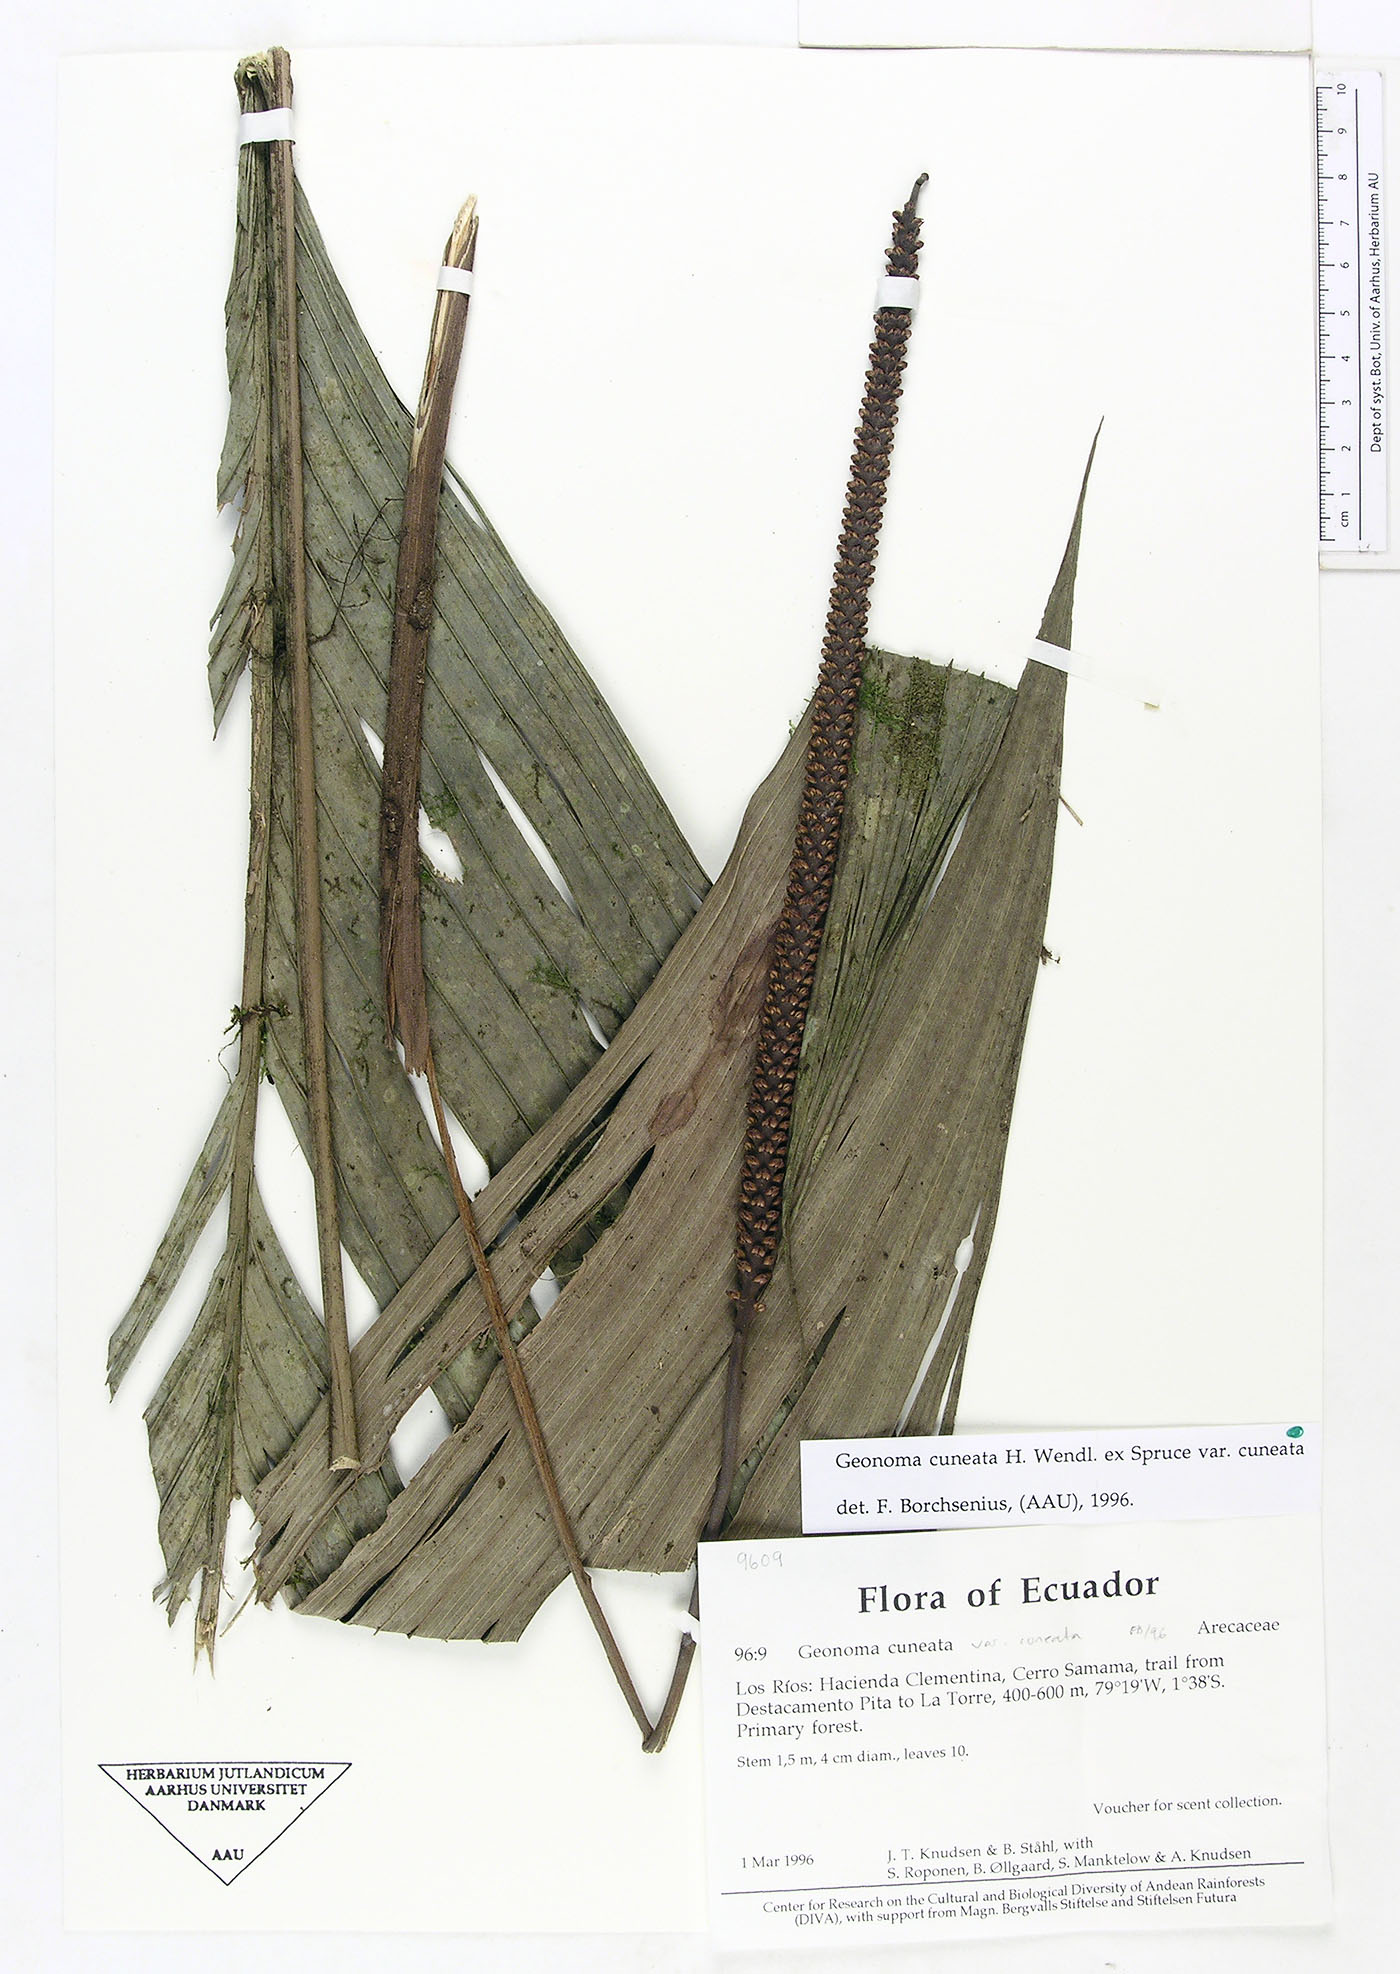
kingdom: Plantae
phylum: Tracheophyta
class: Liliopsida
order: Arecales
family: Arecaceae
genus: Geonoma
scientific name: Geonoma cuneata
